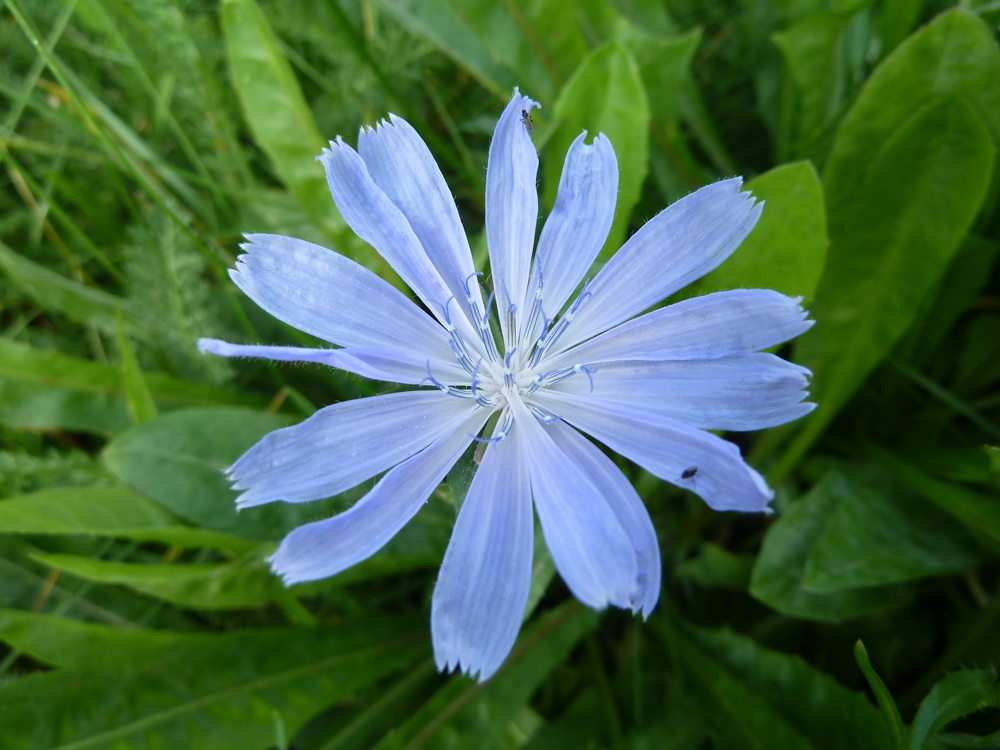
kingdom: Plantae
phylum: Tracheophyta
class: Magnoliopsida
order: Asterales
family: Asteraceae
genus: Cichorium
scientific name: Cichorium intybus
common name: Chicory
